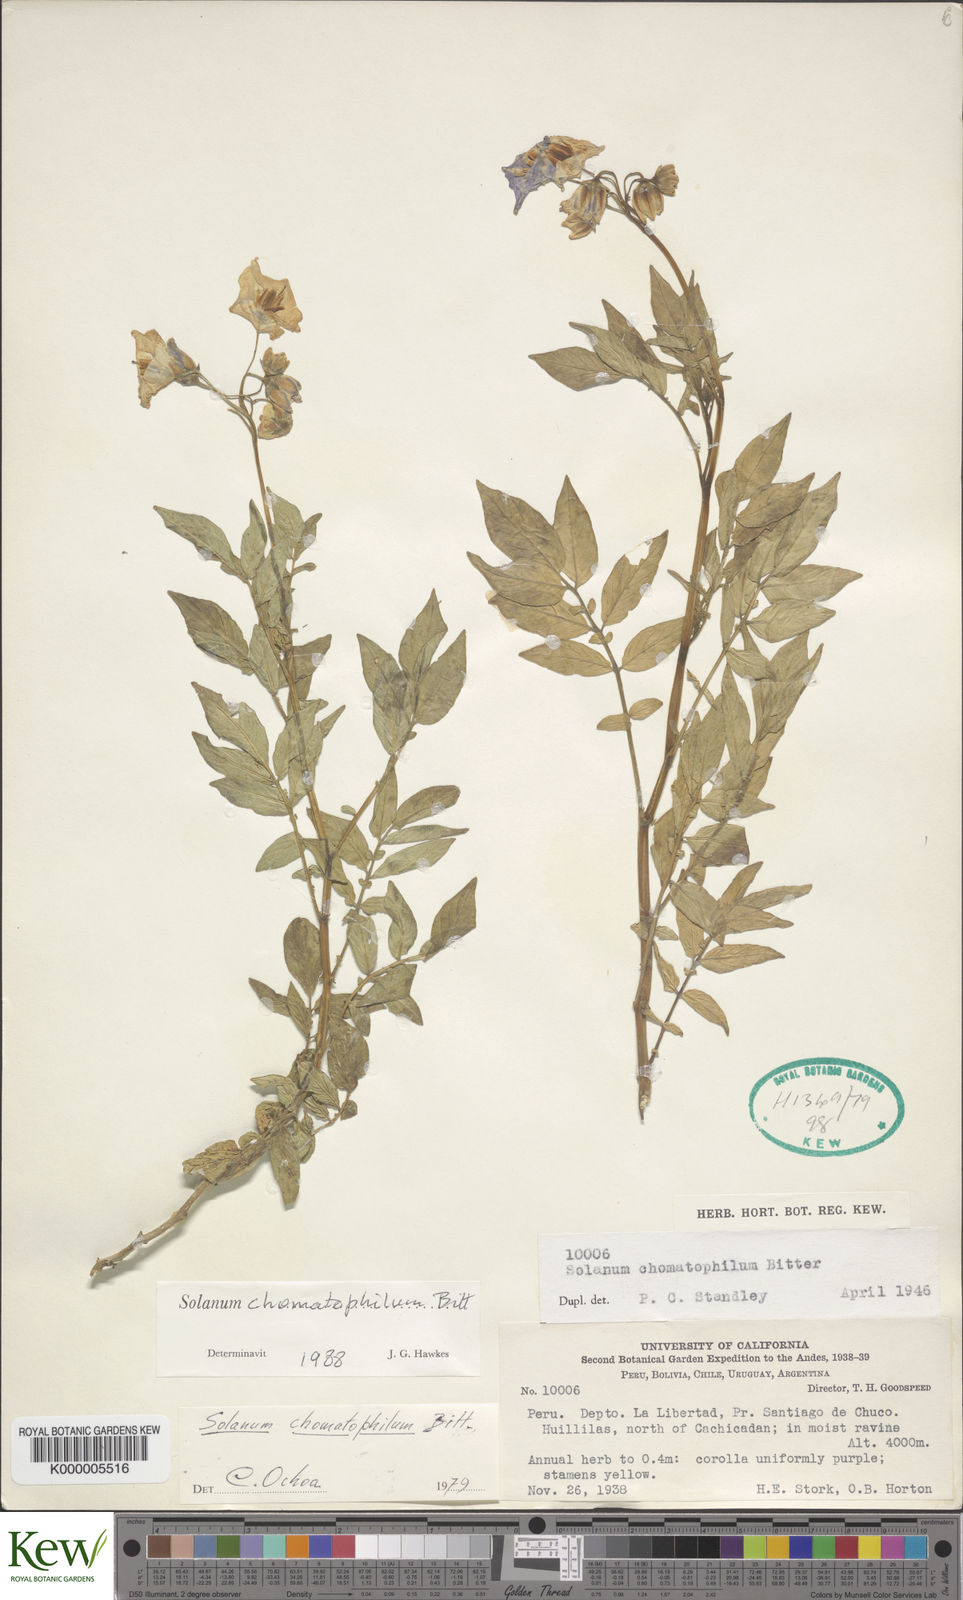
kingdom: Plantae
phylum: Tracheophyta
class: Magnoliopsida
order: Solanales
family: Solanaceae
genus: Solanum
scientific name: Solanum chomatophilum
